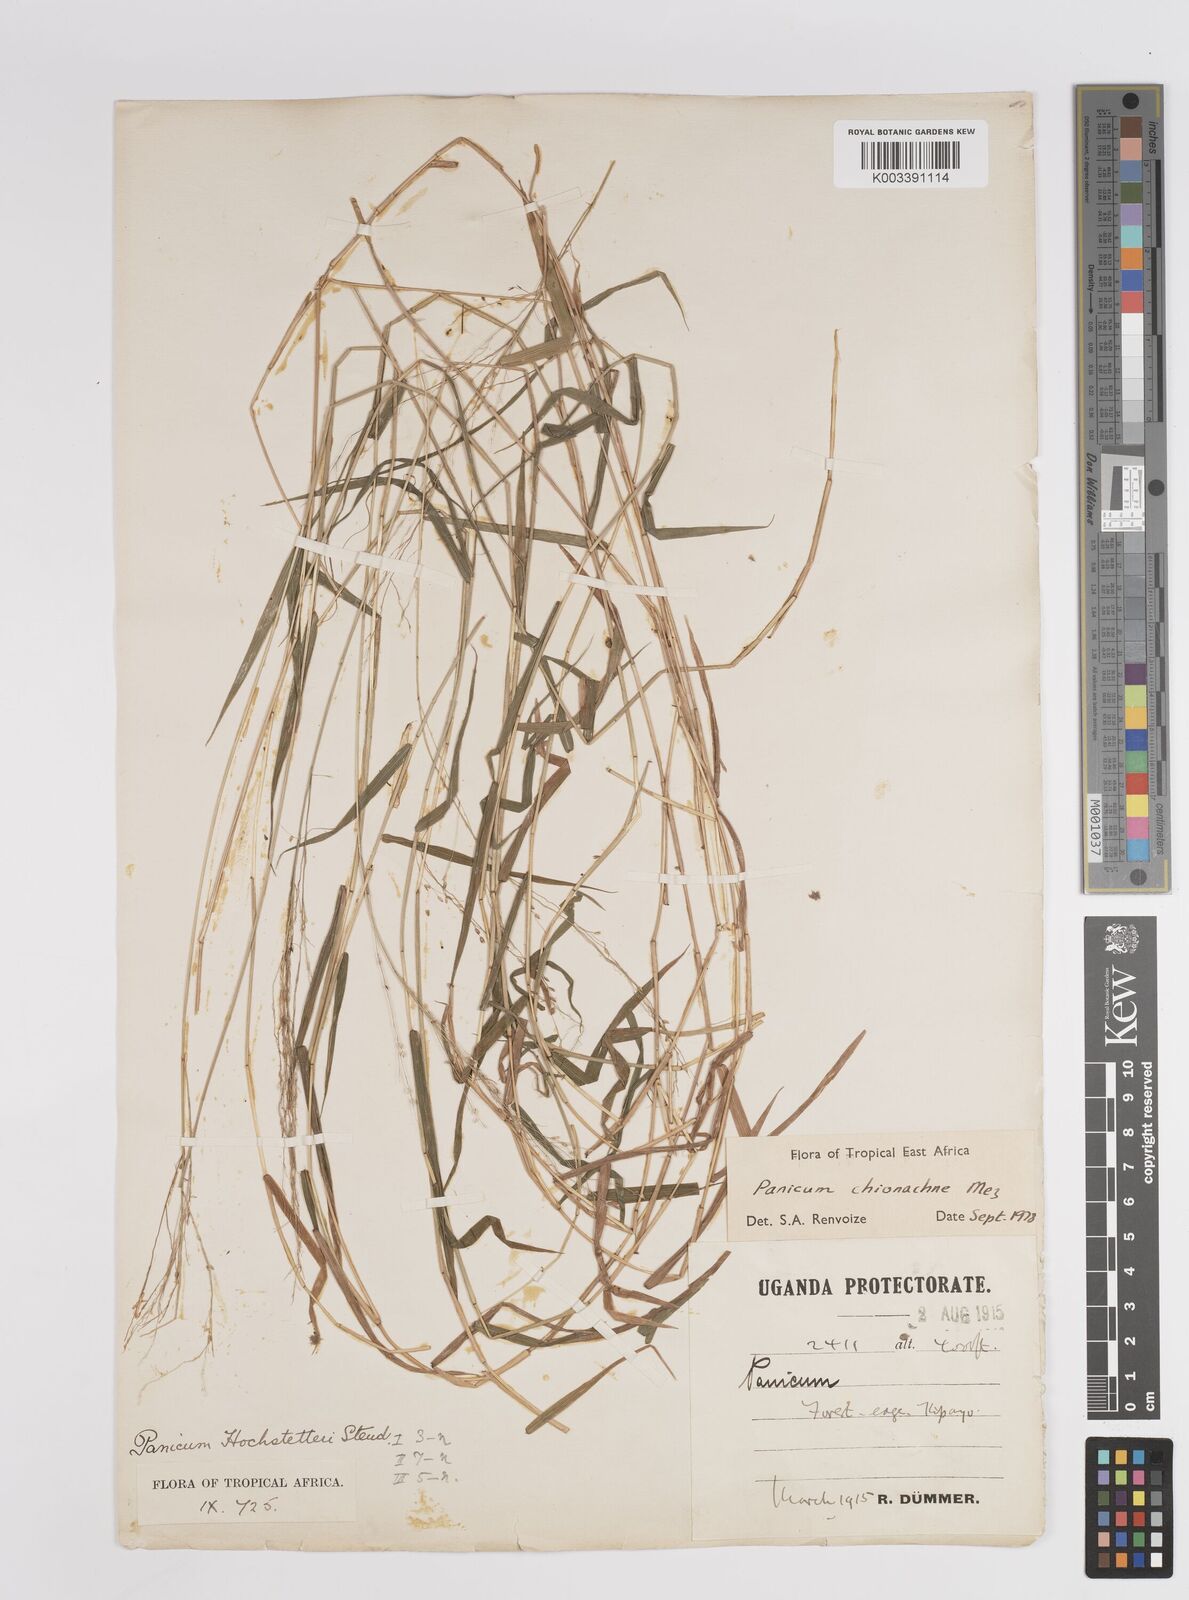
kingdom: Plantae
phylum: Tracheophyta
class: Liliopsida
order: Poales
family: Poaceae
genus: Panicum
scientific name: Panicum chionachne
